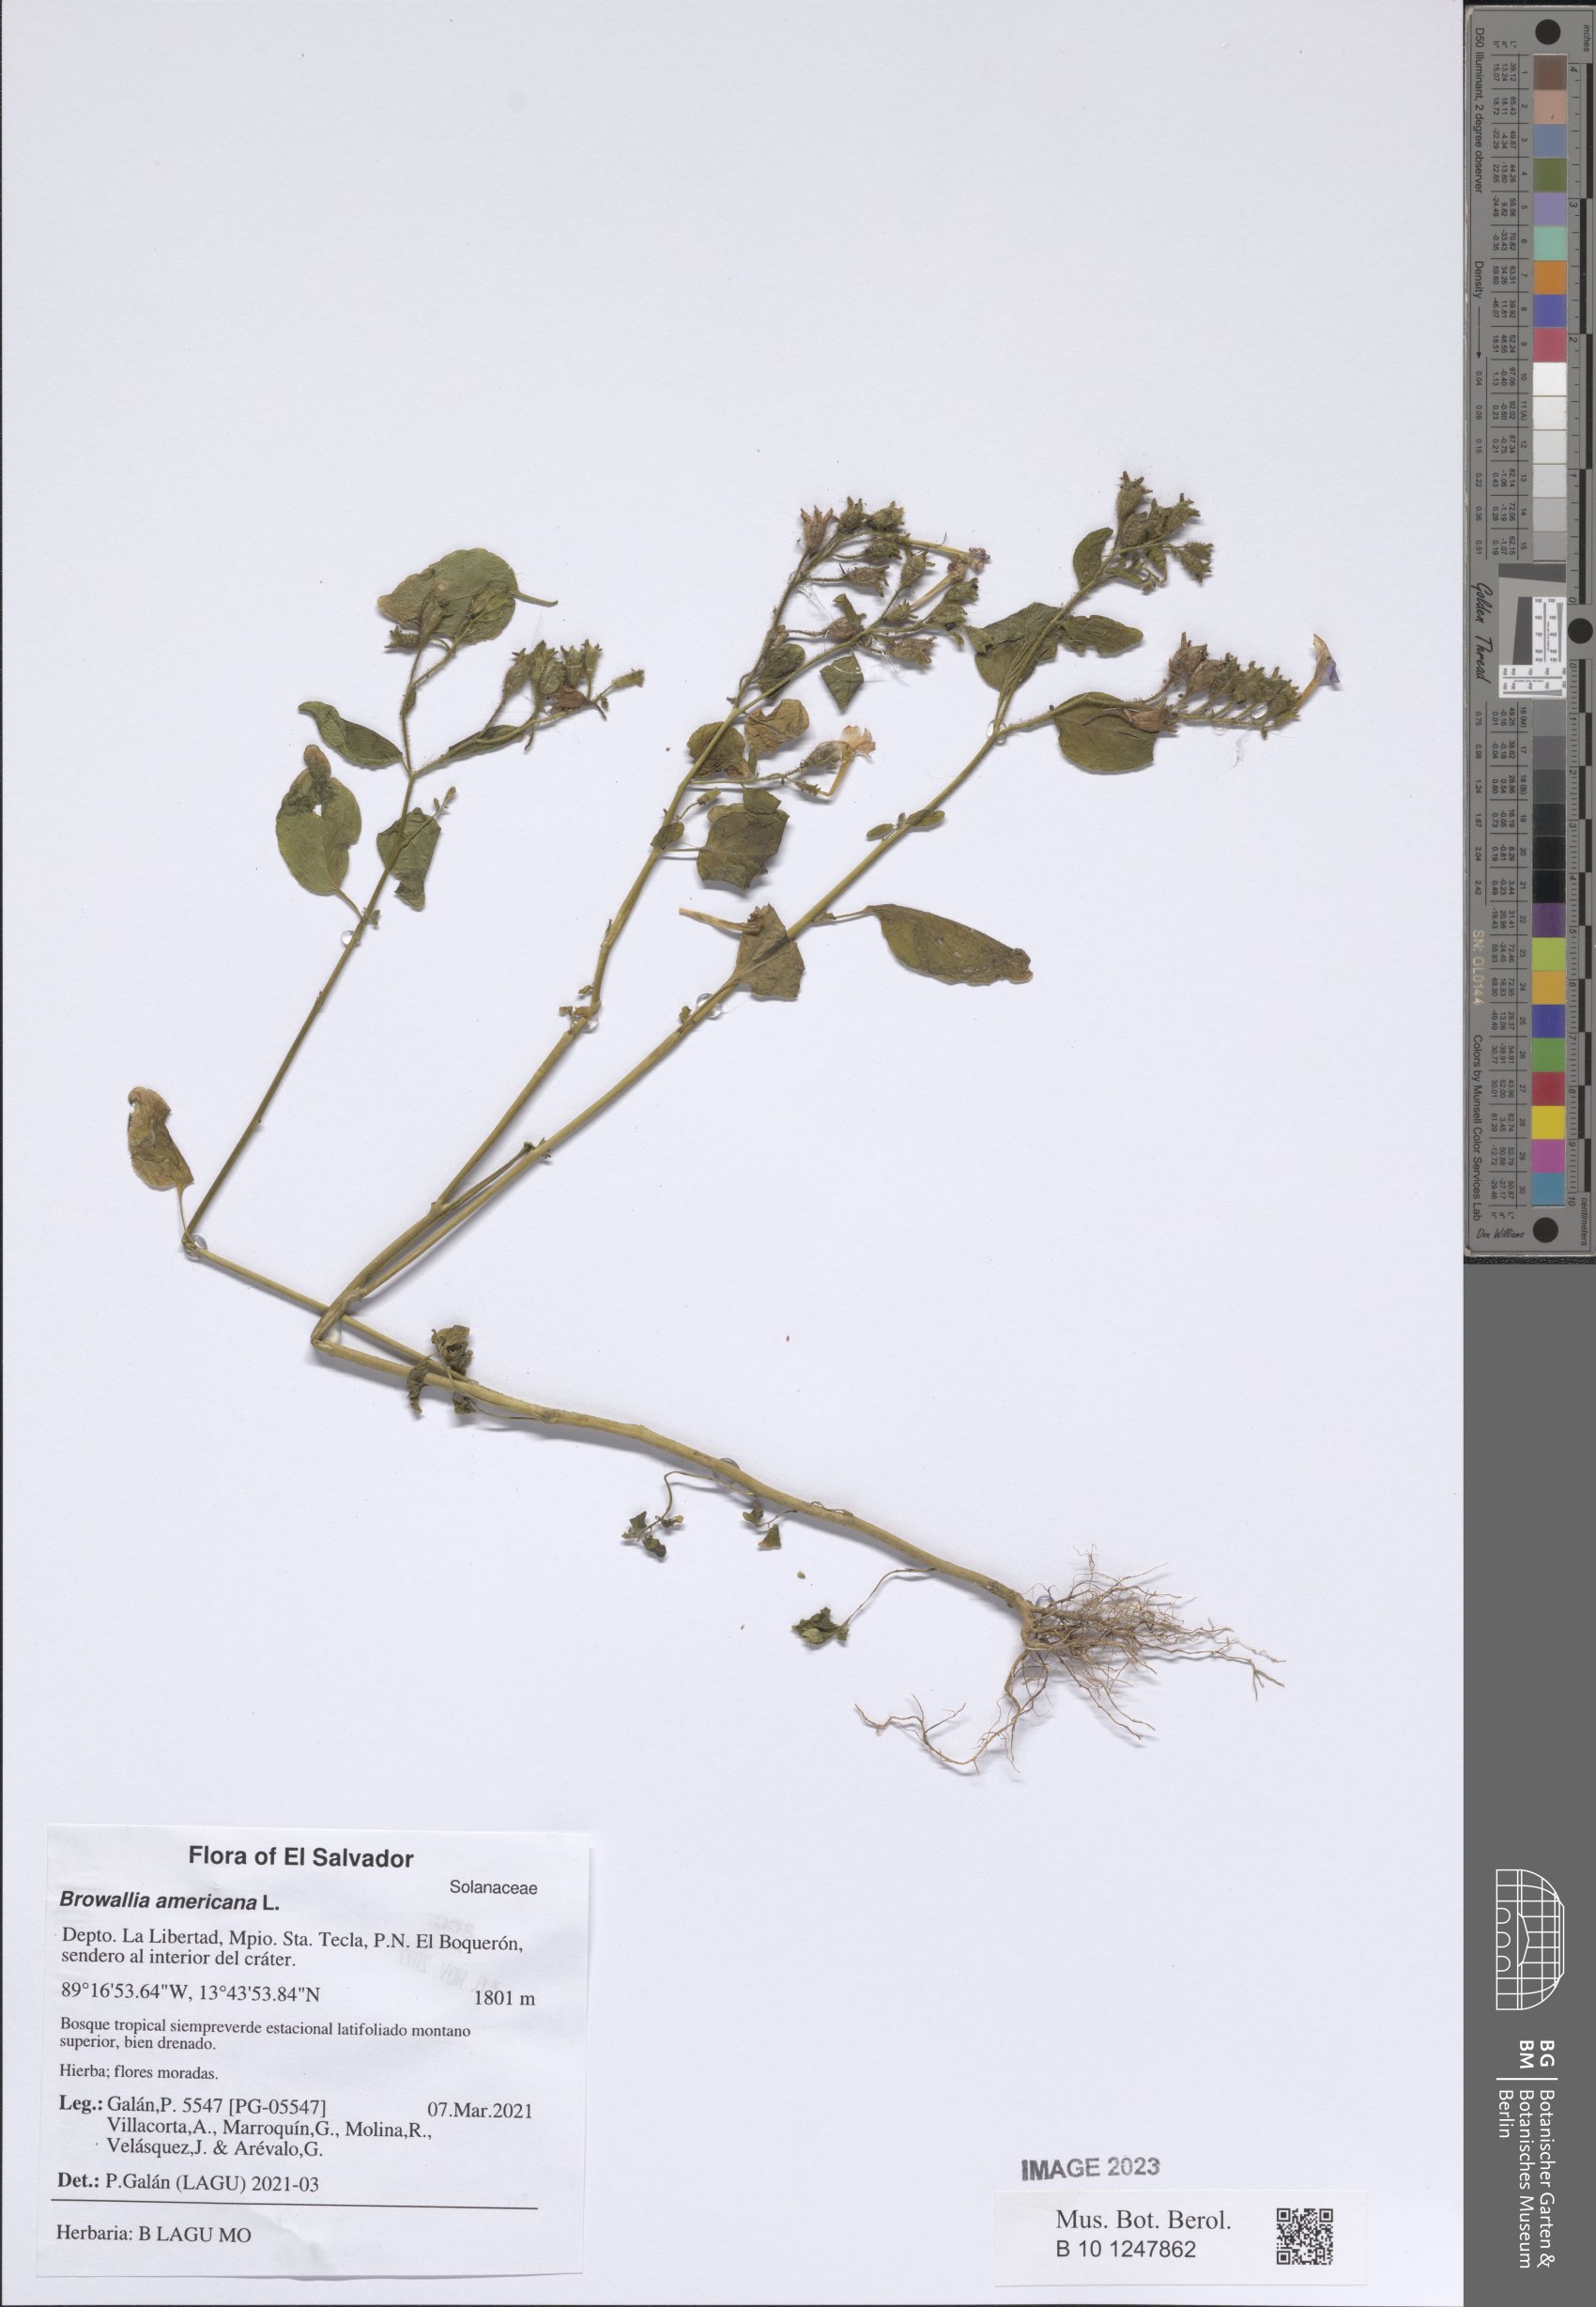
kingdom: Plantae
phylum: Tracheophyta
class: Magnoliopsida
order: Solanales
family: Solanaceae
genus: Browallia
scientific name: Browallia americana
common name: Jamaican forget-me-not
